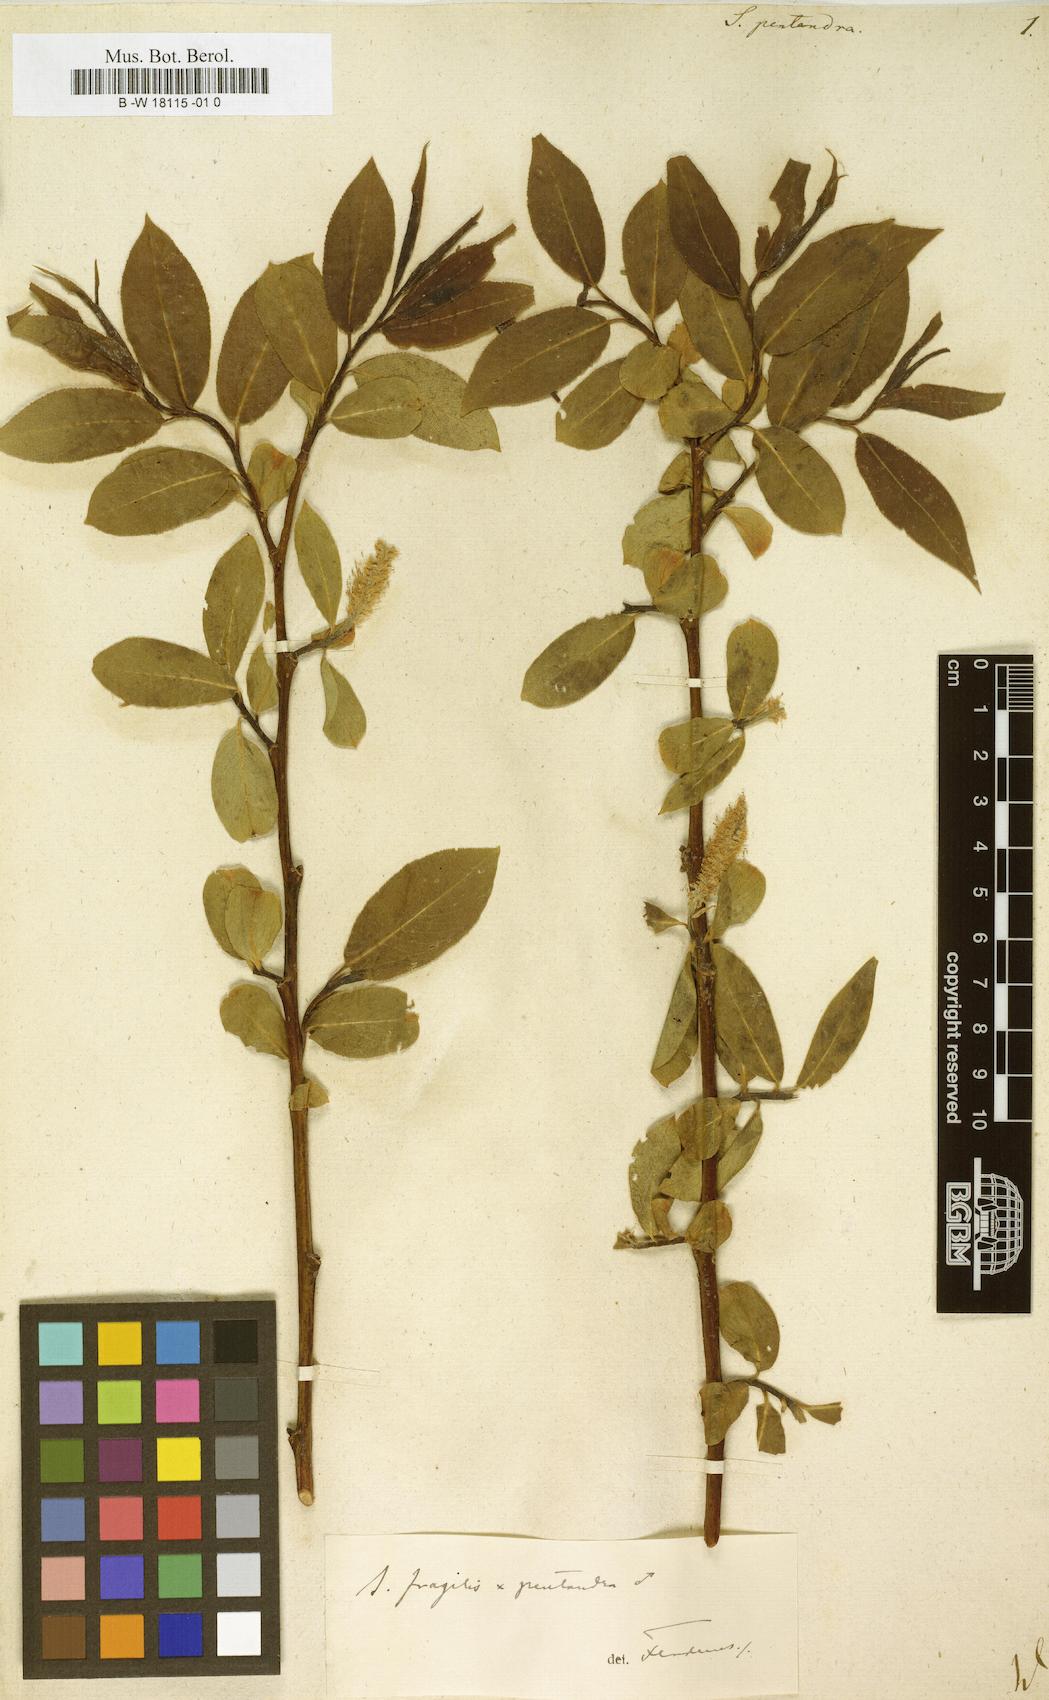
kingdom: Plantae
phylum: Tracheophyta
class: Magnoliopsida
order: Malpighiales
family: Salicaceae
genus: Salix
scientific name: Salix pentandra
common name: Bay willow
